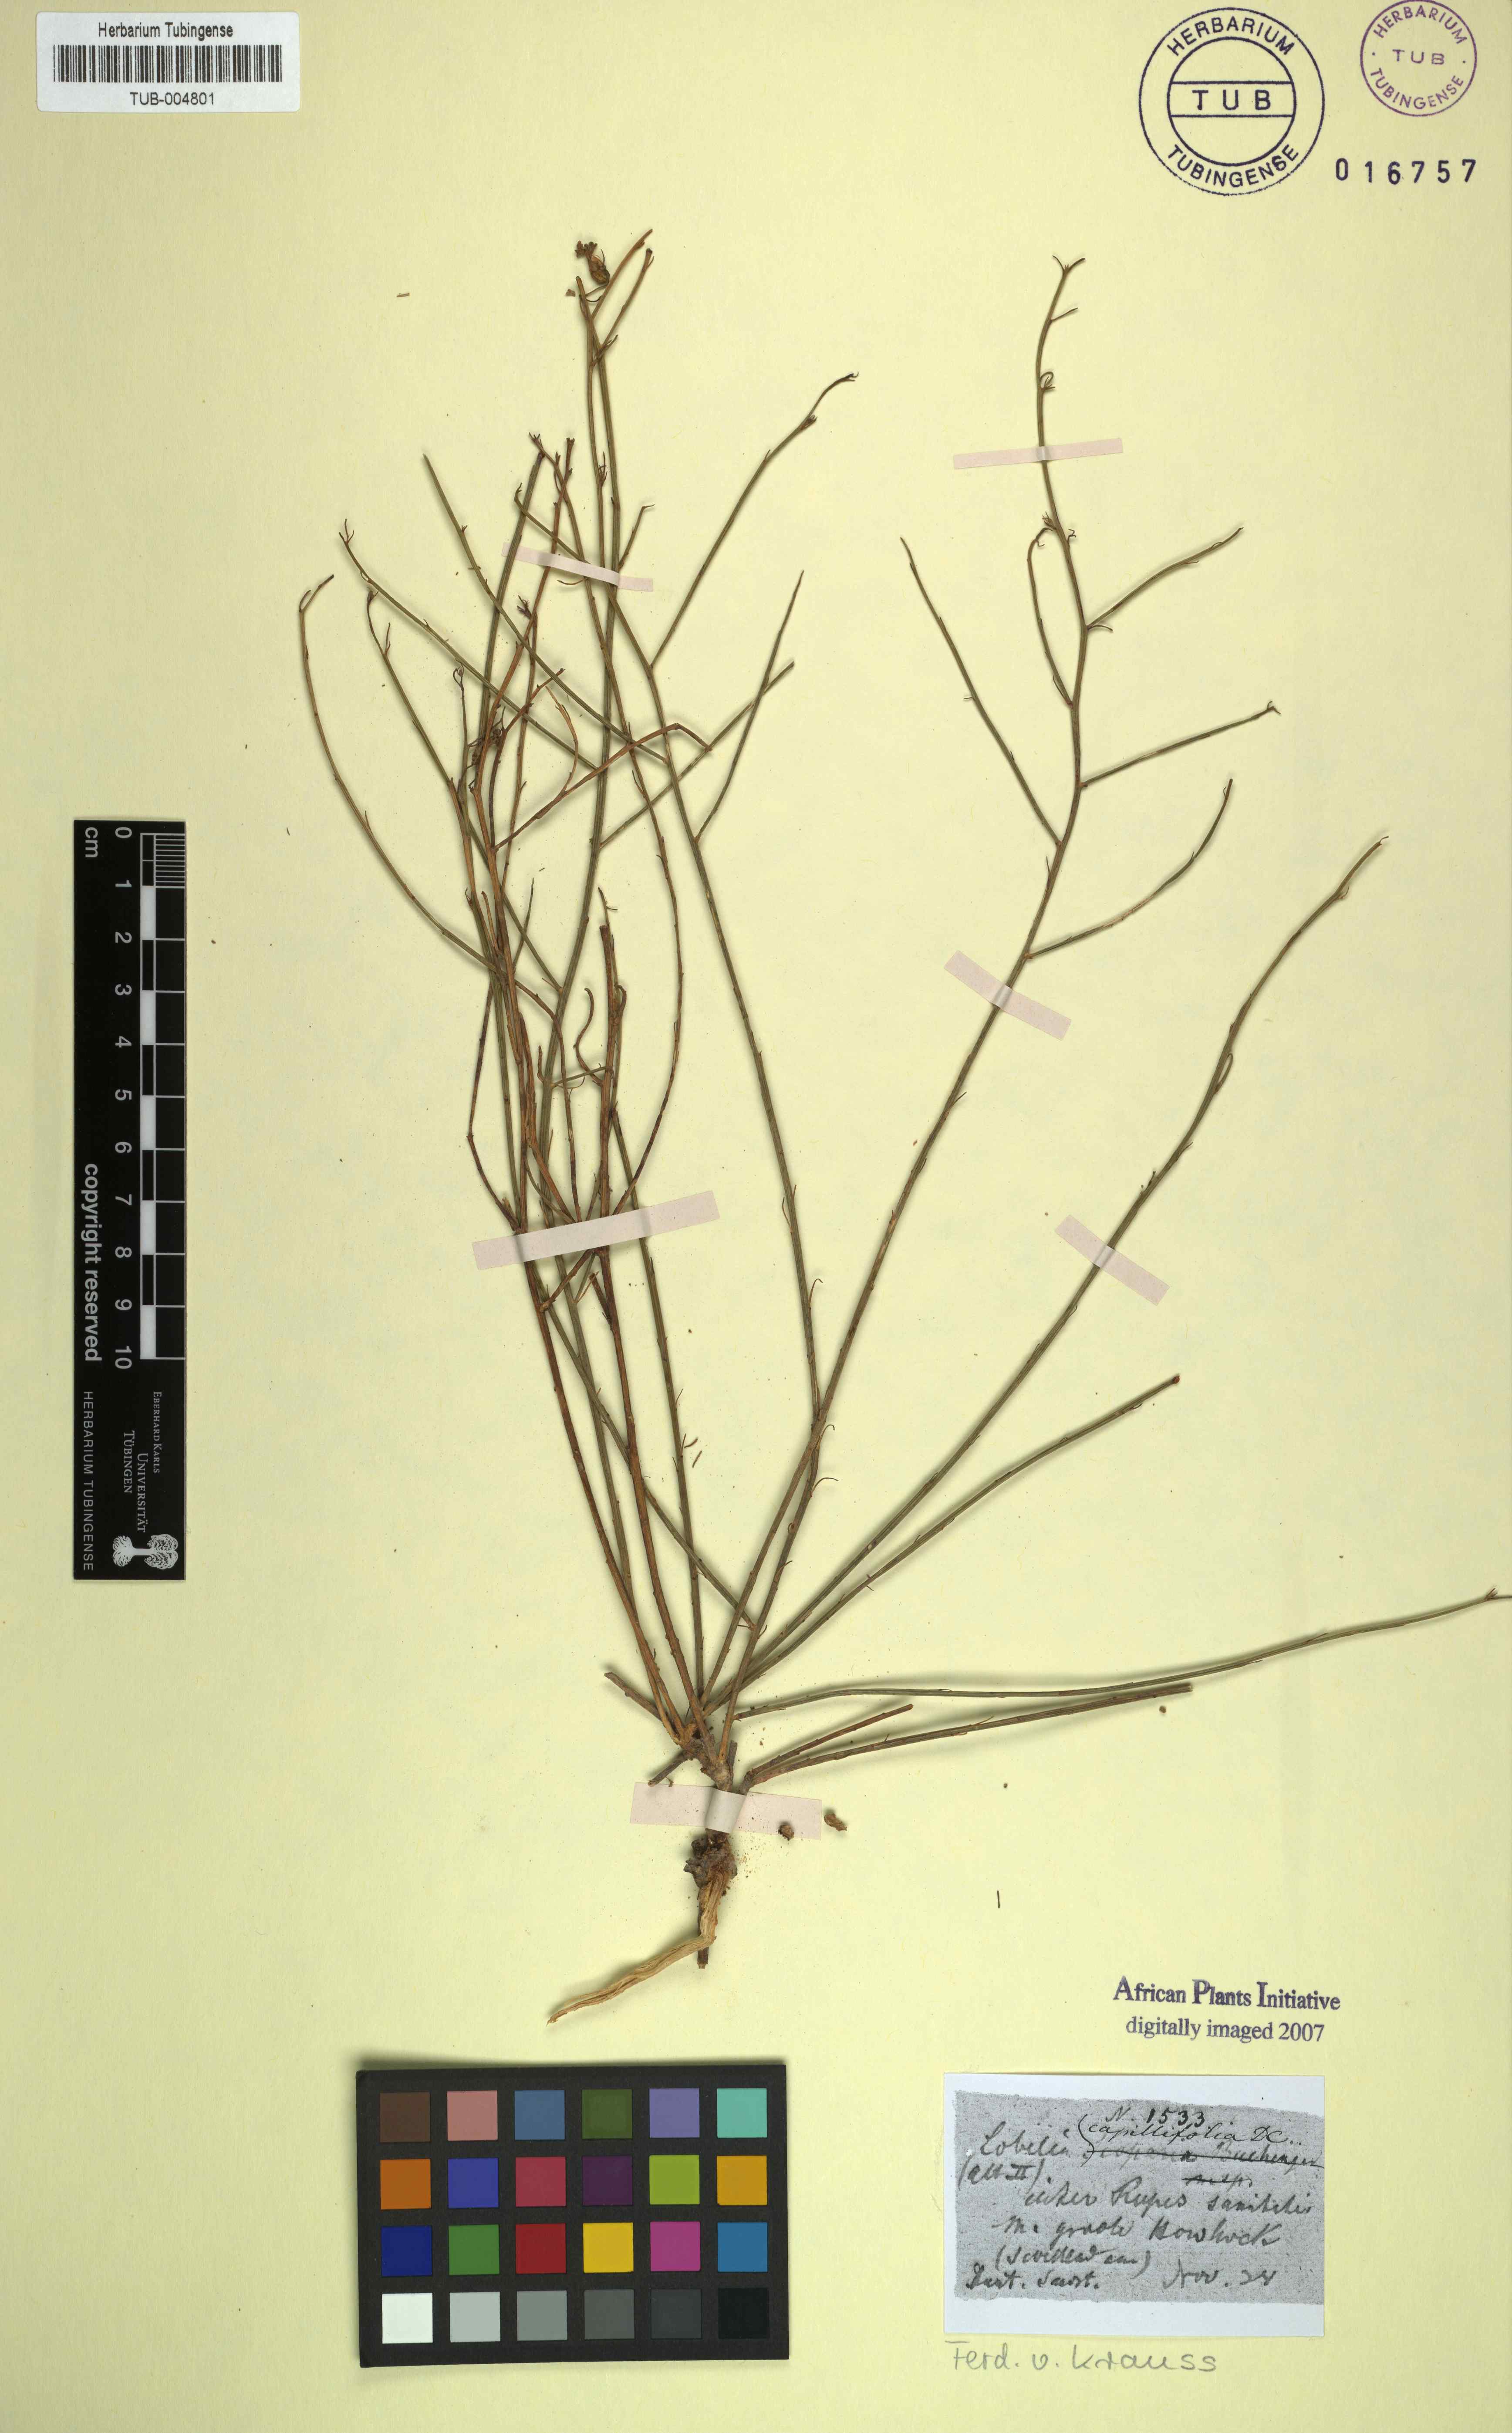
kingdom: Plantae
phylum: Tracheophyta
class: Magnoliopsida
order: Asterales
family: Campanulaceae
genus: Lobelia
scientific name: Lobelia capillifolia
